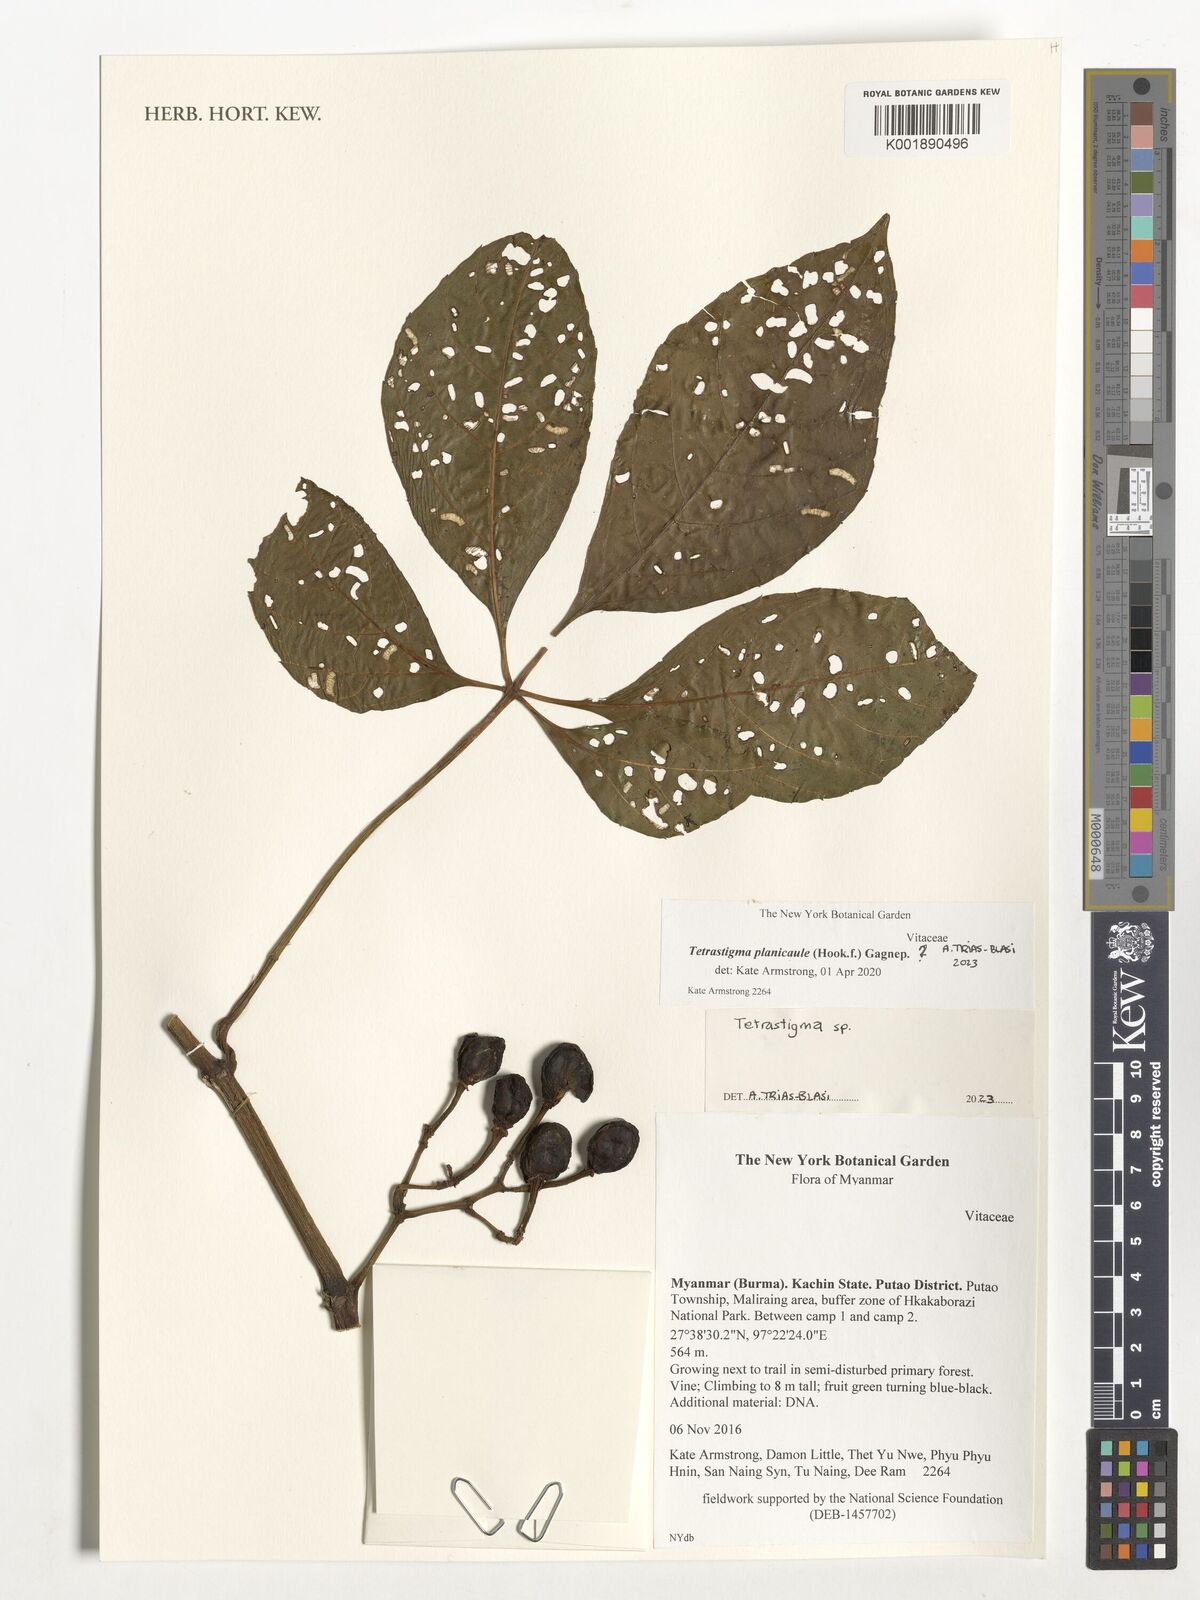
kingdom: Plantae
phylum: Tracheophyta
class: Magnoliopsida
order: Vitales
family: Vitaceae
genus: Tetrastigma
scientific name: Tetrastigma
